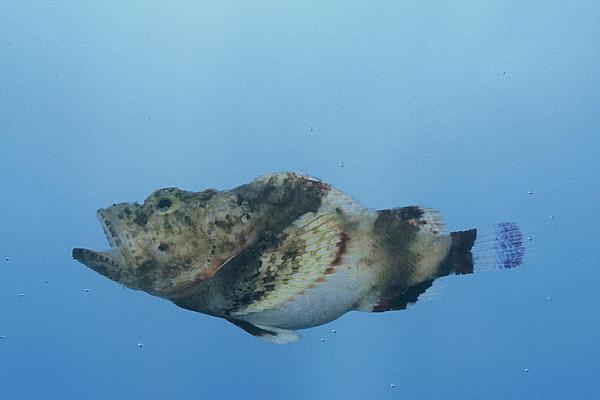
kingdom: Animalia
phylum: Chordata
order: Scorpaeniformes
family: Scorpaenidae
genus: Scorpaenopsis
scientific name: Scorpaenopsis diabolus
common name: False stonefish
